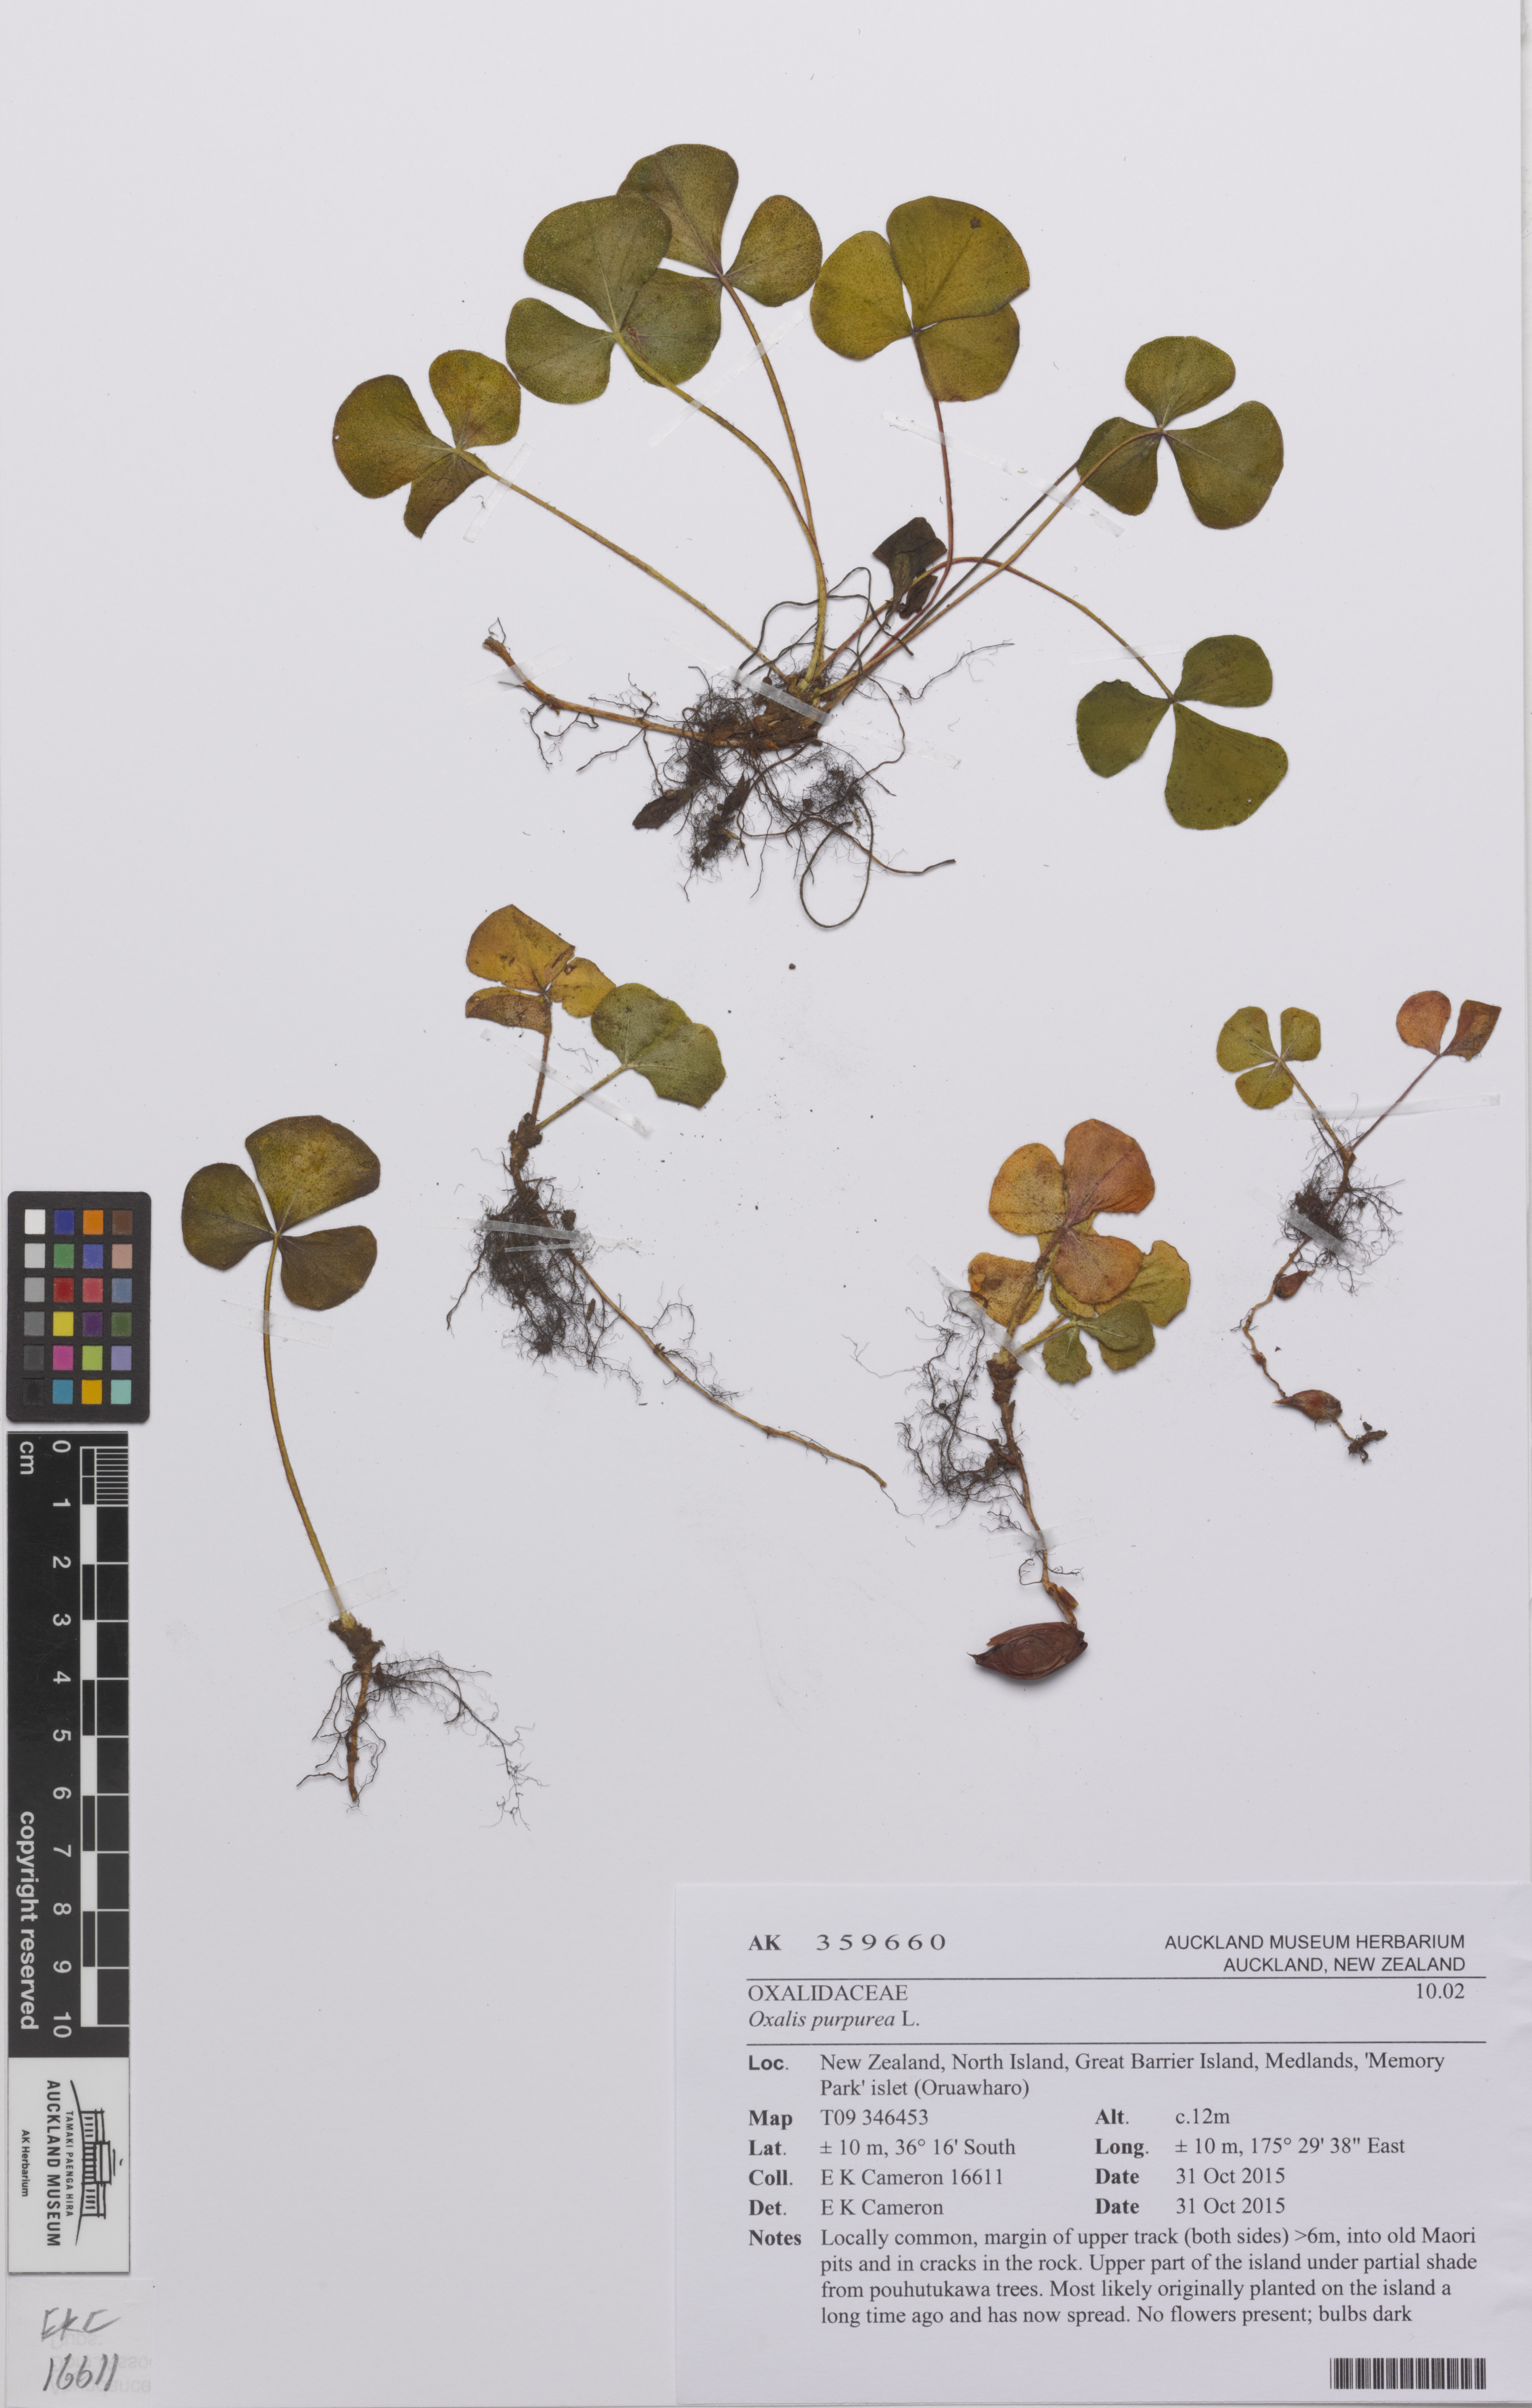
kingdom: Plantae
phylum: Tracheophyta
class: Magnoliopsida
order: Oxalidales
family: Oxalidaceae
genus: Oxalis
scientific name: Oxalis purpurea
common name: Purple woodsorrel
